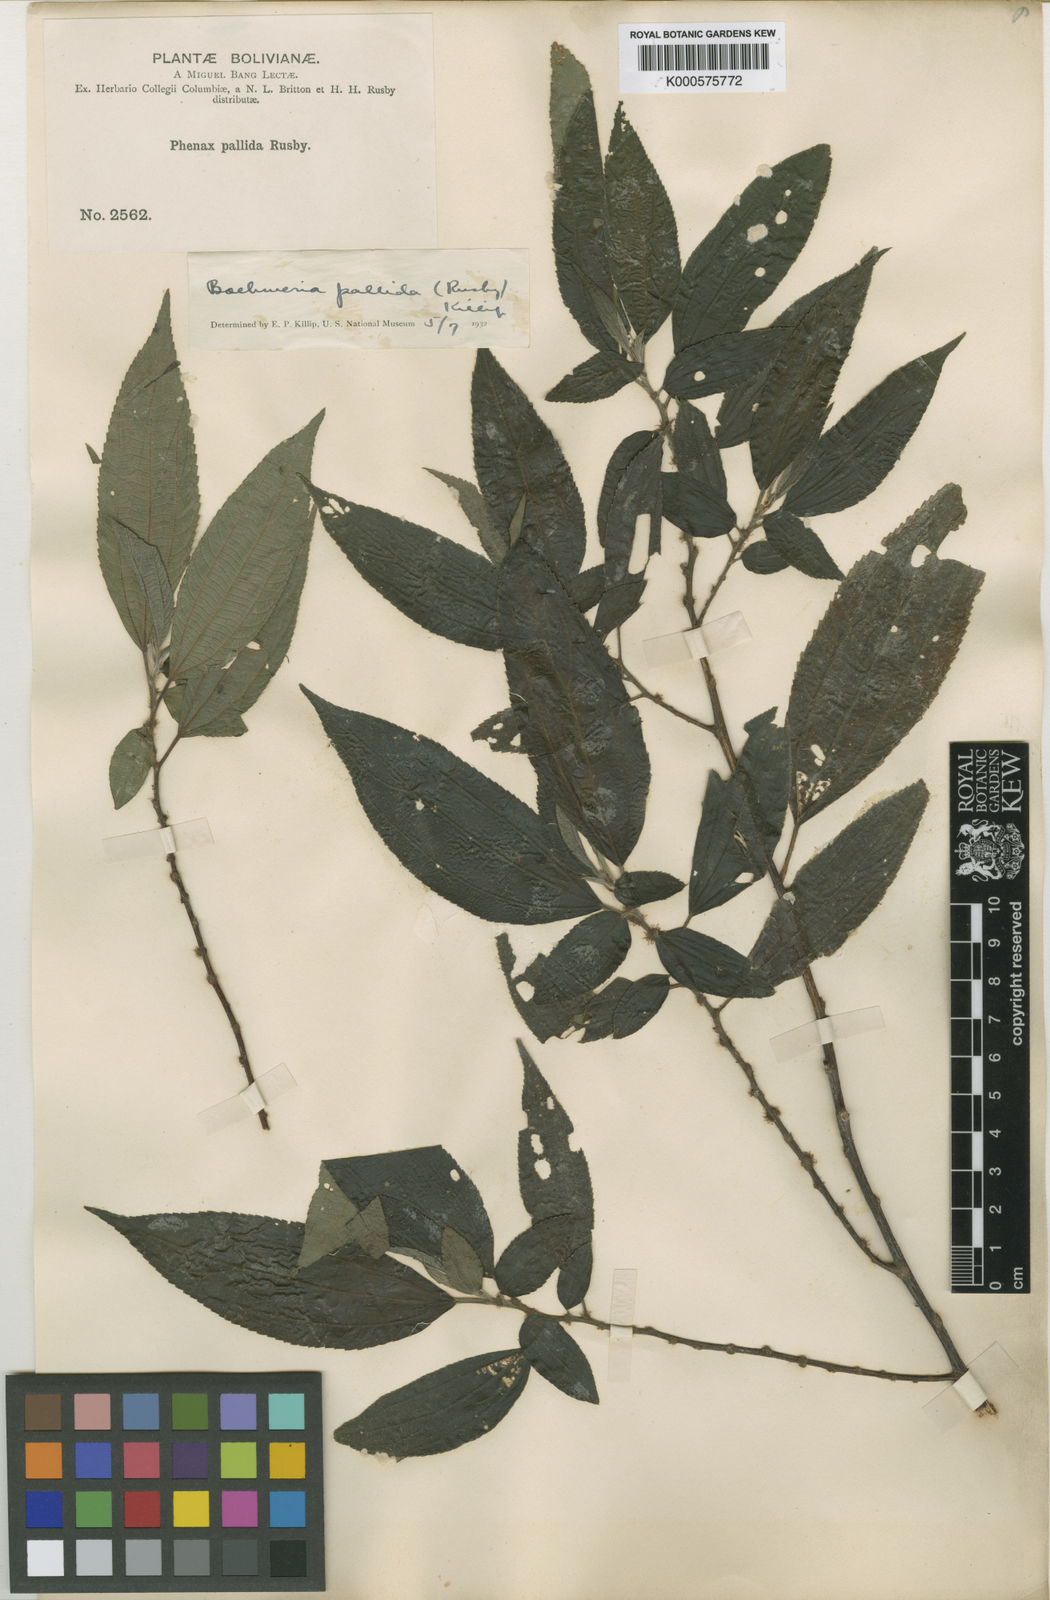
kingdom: Plantae
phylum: Tracheophyta
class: Magnoliopsida
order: Rosales
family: Urticaceae
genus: Boehmeria
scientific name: Boehmeria pavonii
